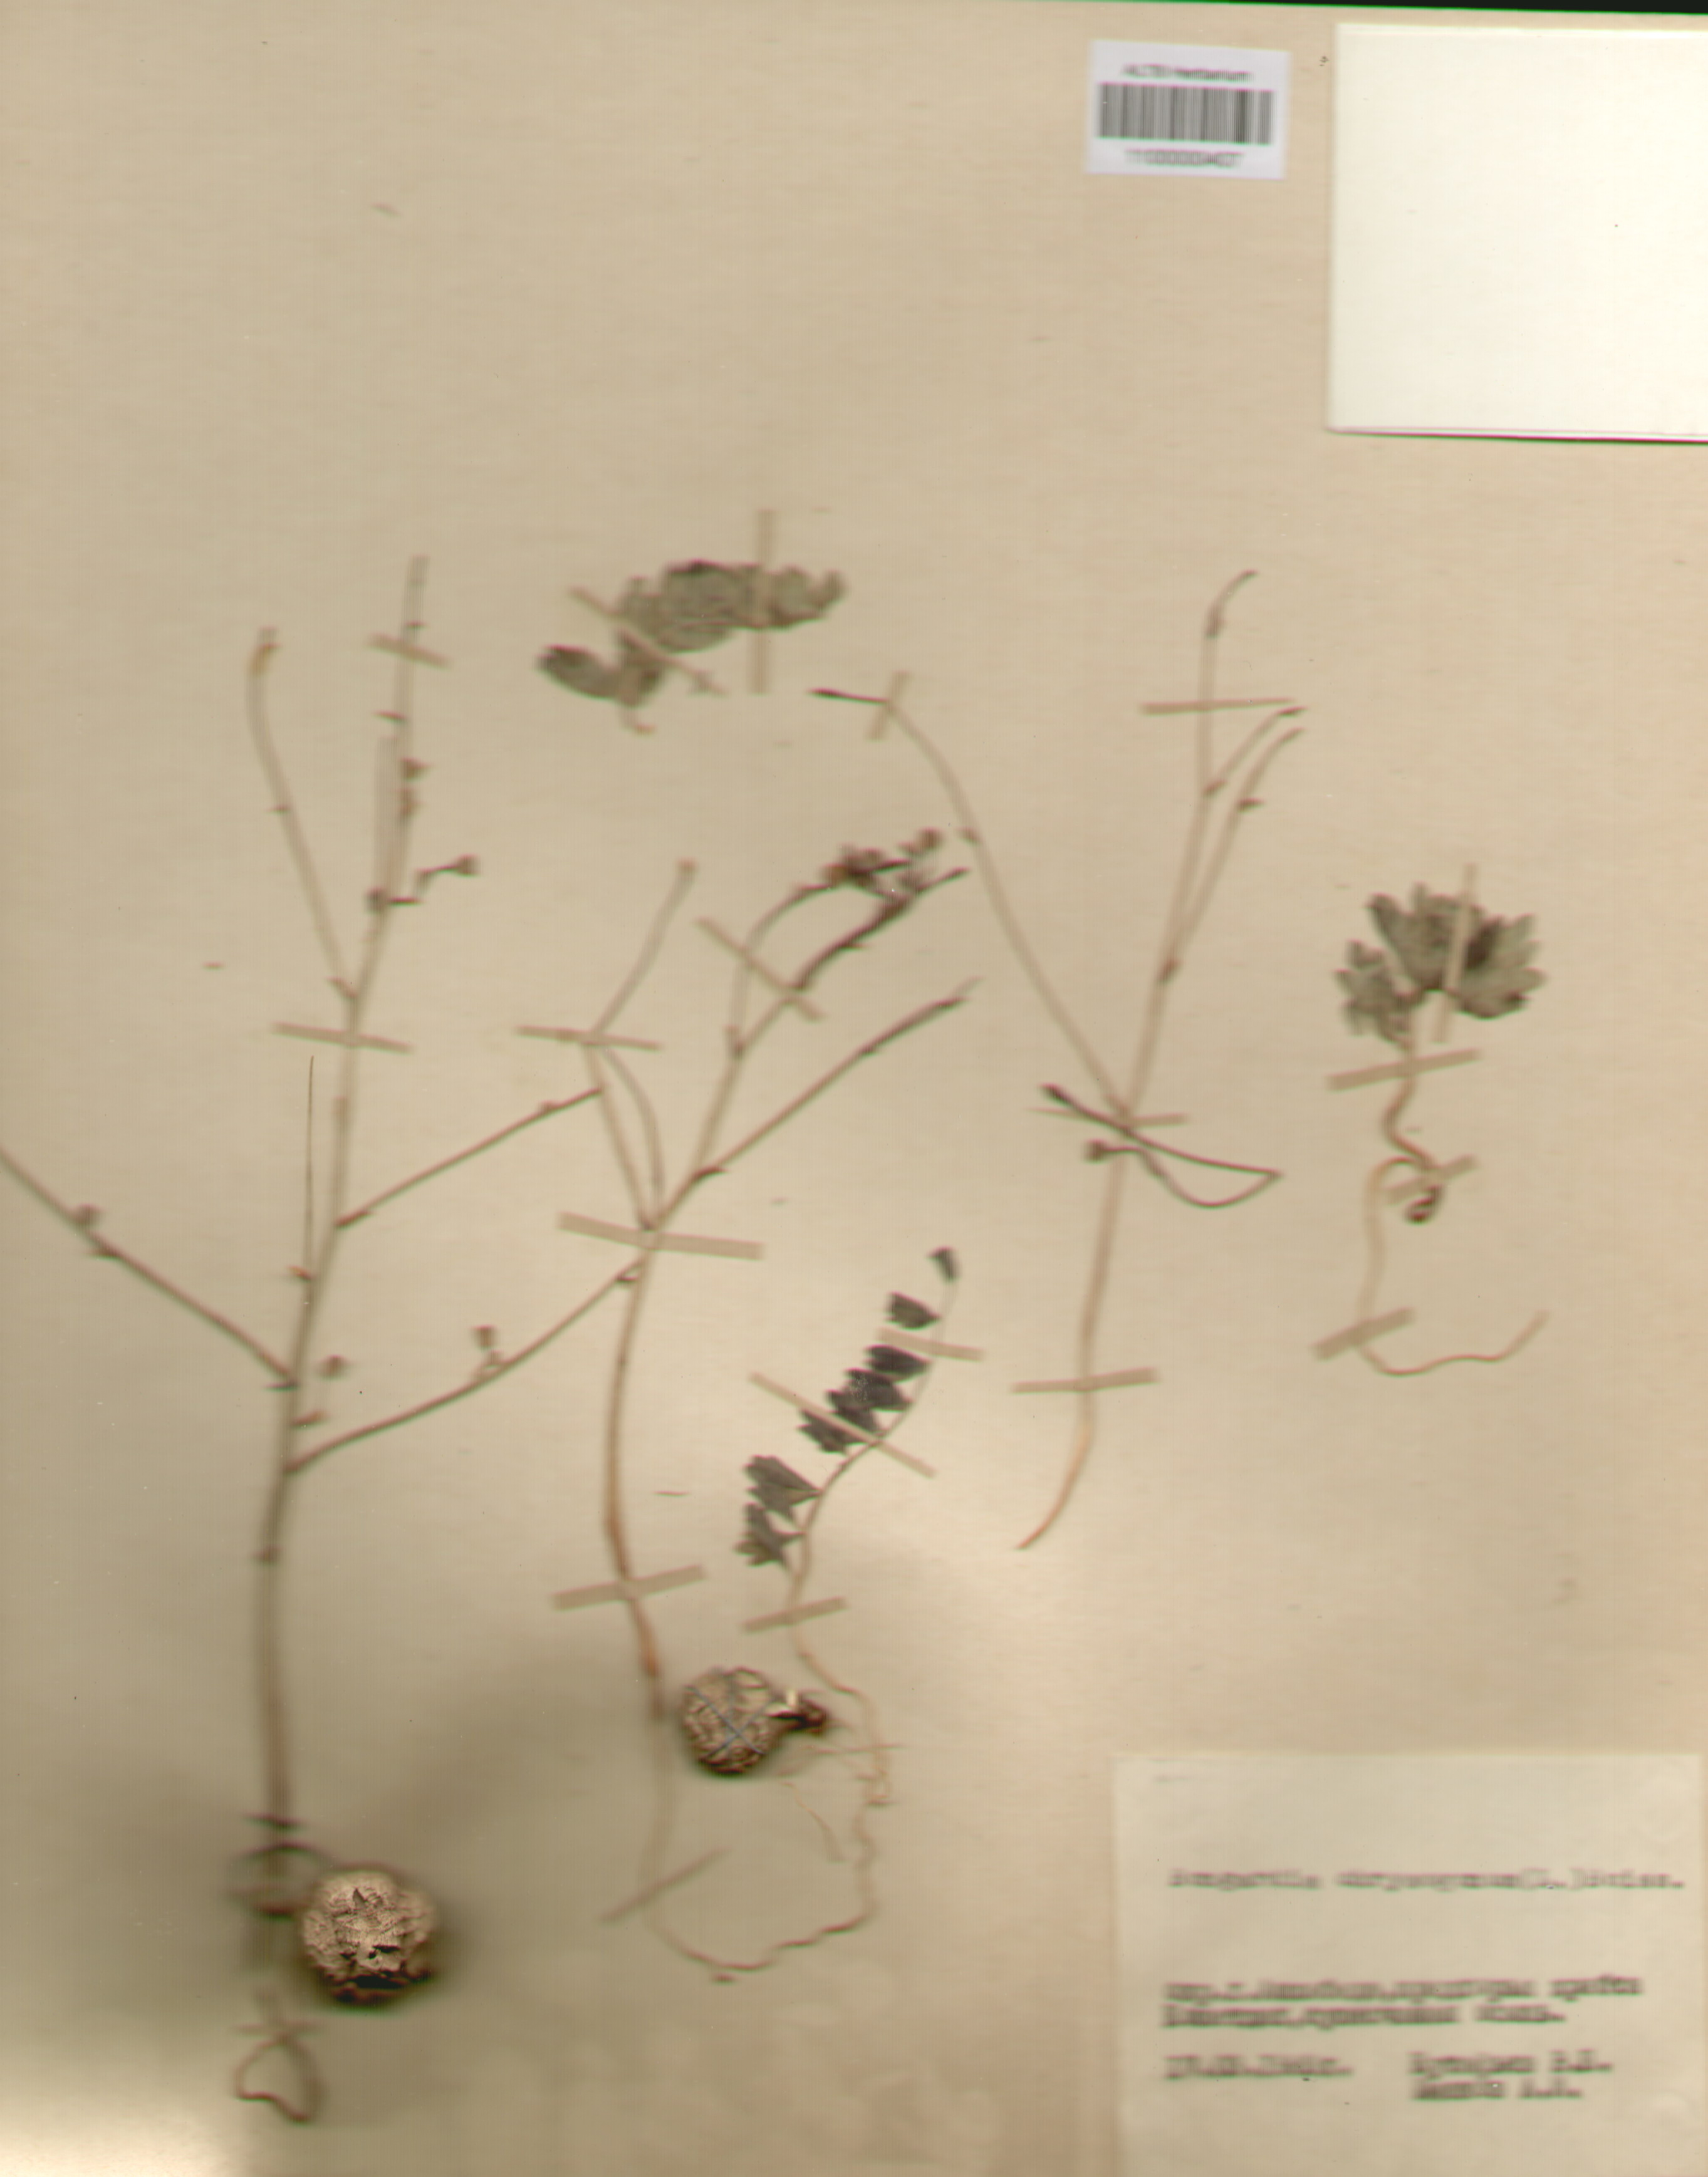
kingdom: Plantae
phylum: Tracheophyta
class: Magnoliopsida
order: Ranunculales
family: Berberidaceae
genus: Bongardia
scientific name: Bongardia chrysogonum
